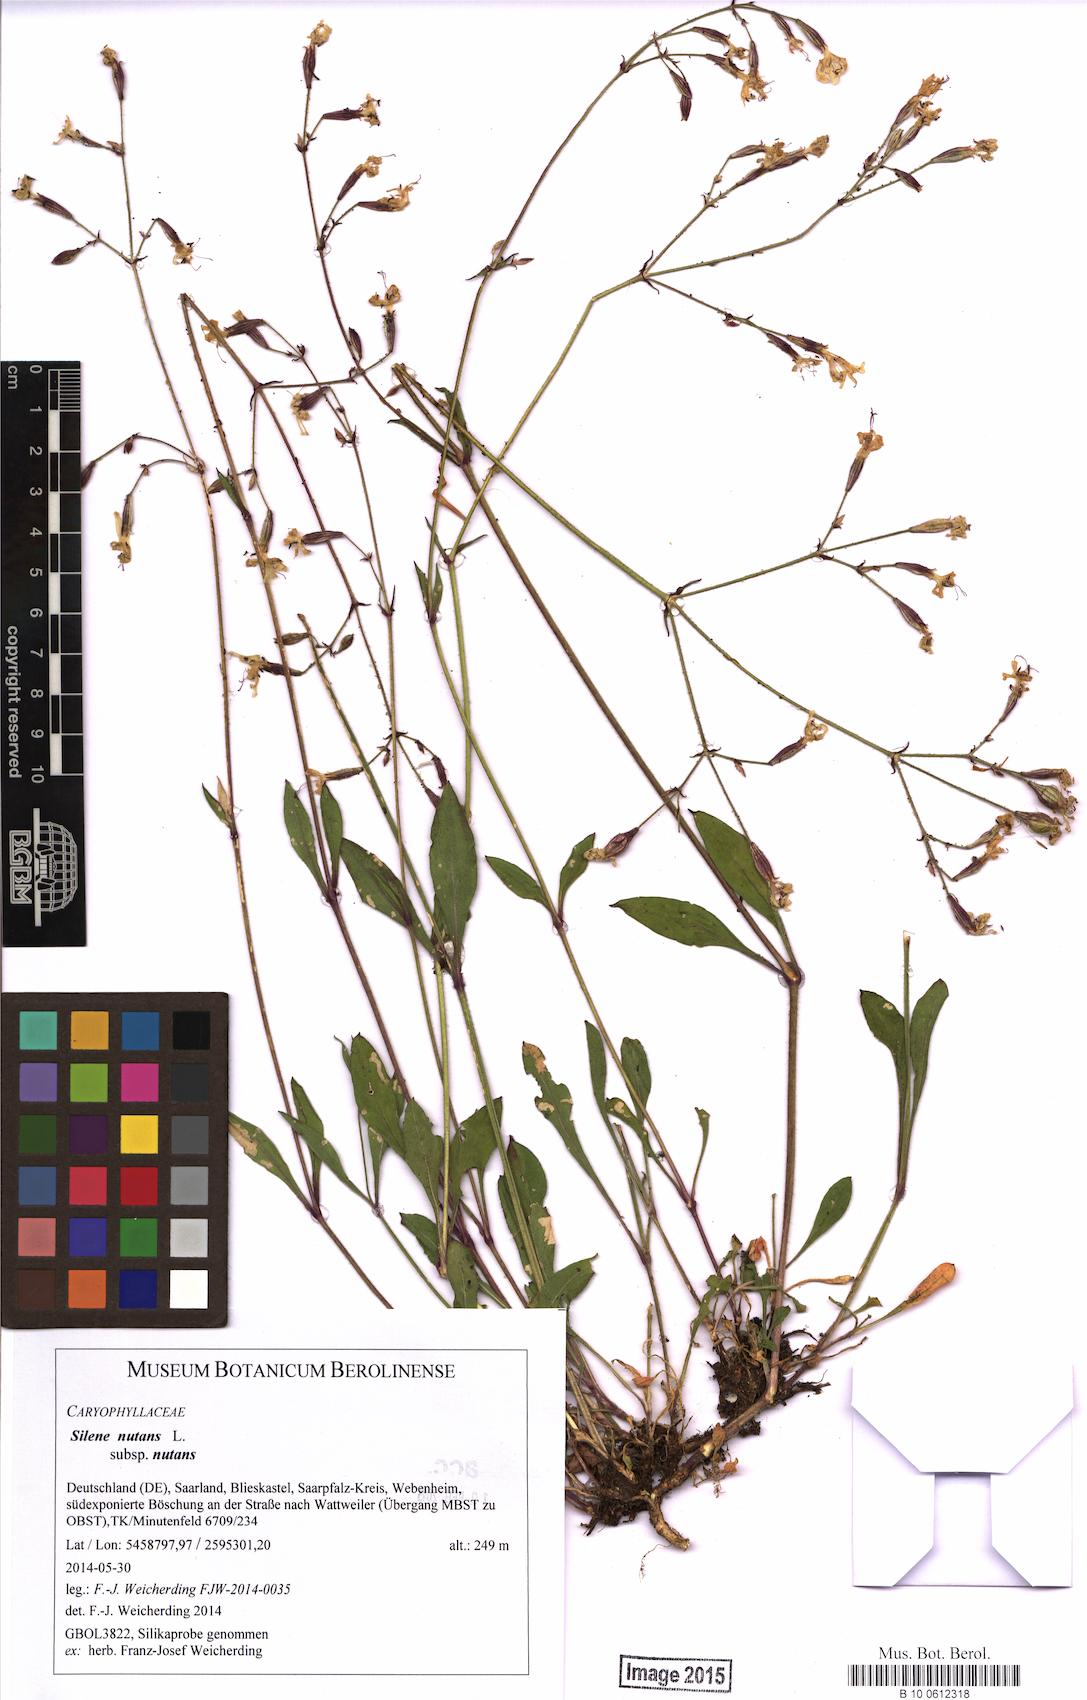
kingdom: Plantae
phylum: Tracheophyta
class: Magnoliopsida
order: Caryophyllales
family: Caryophyllaceae
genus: Silene
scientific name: Silene nutans
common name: Nottingham catchfly
